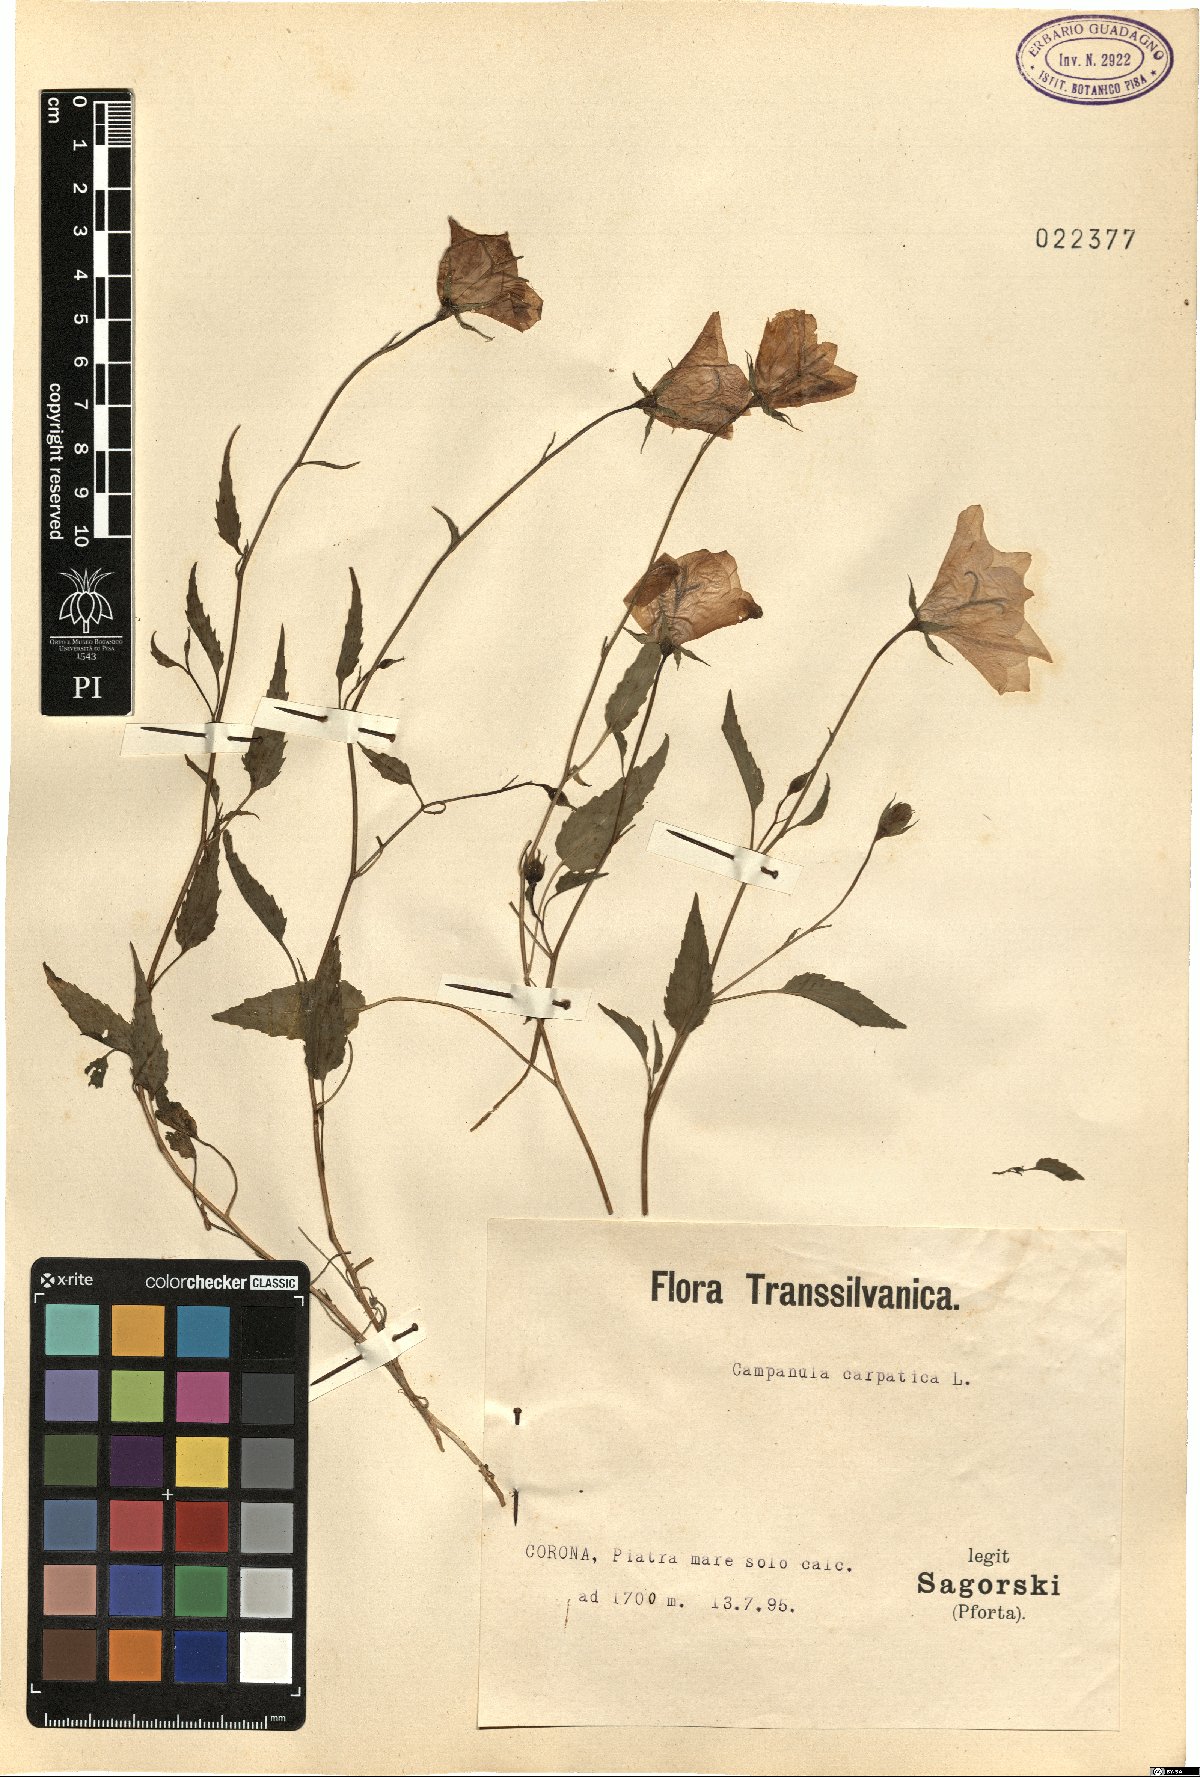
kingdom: Plantae
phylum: Tracheophyta
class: Magnoliopsida
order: Asterales
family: Campanulaceae
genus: Campanula
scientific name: Campanula carpatica
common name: Tussock bellflower
